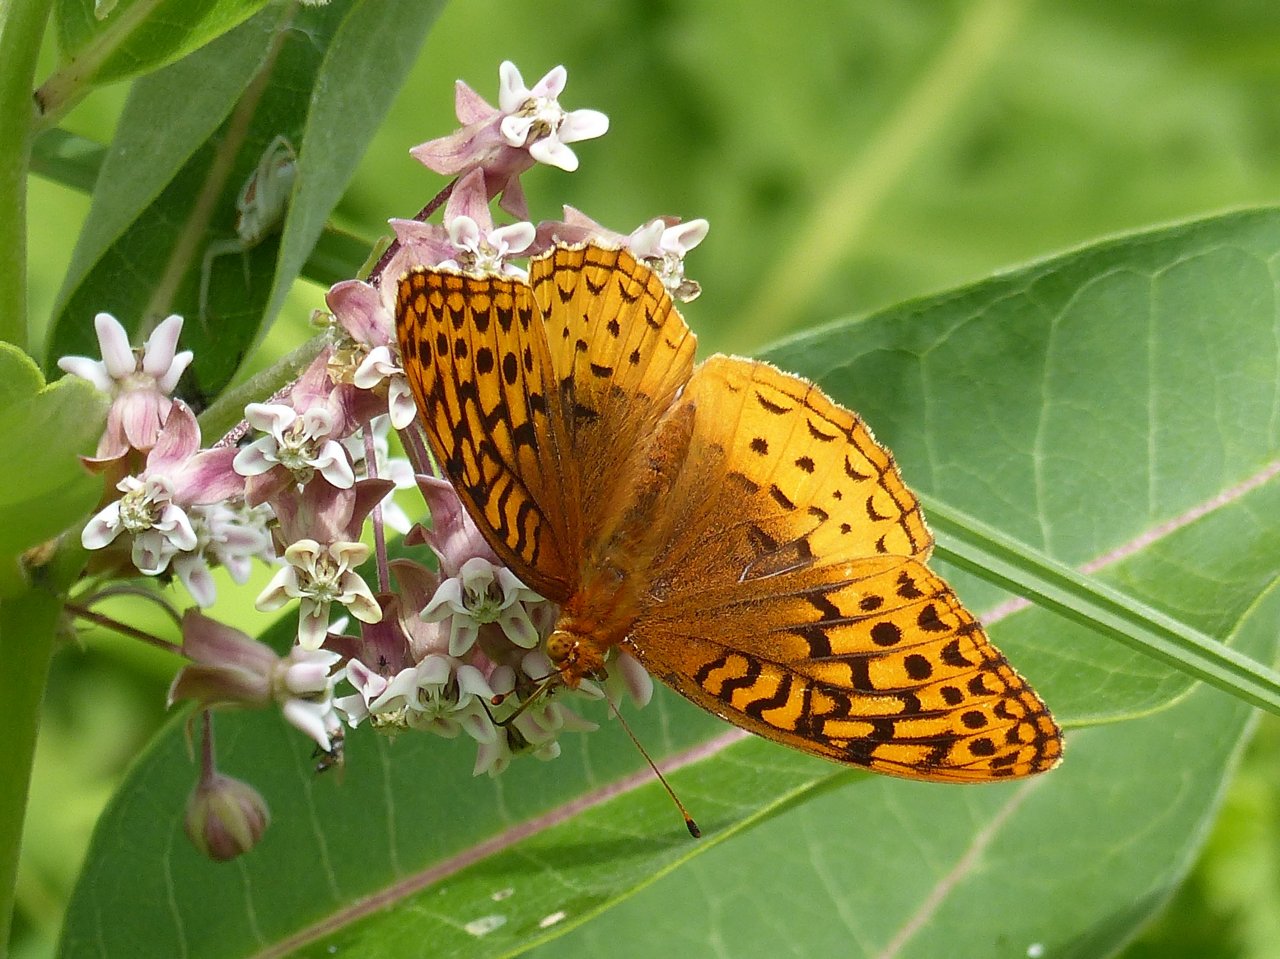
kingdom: Animalia
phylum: Arthropoda
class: Insecta
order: Lepidoptera
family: Nymphalidae
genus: Speyeria
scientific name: Speyeria cybele
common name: Great Spangled Fritillary
